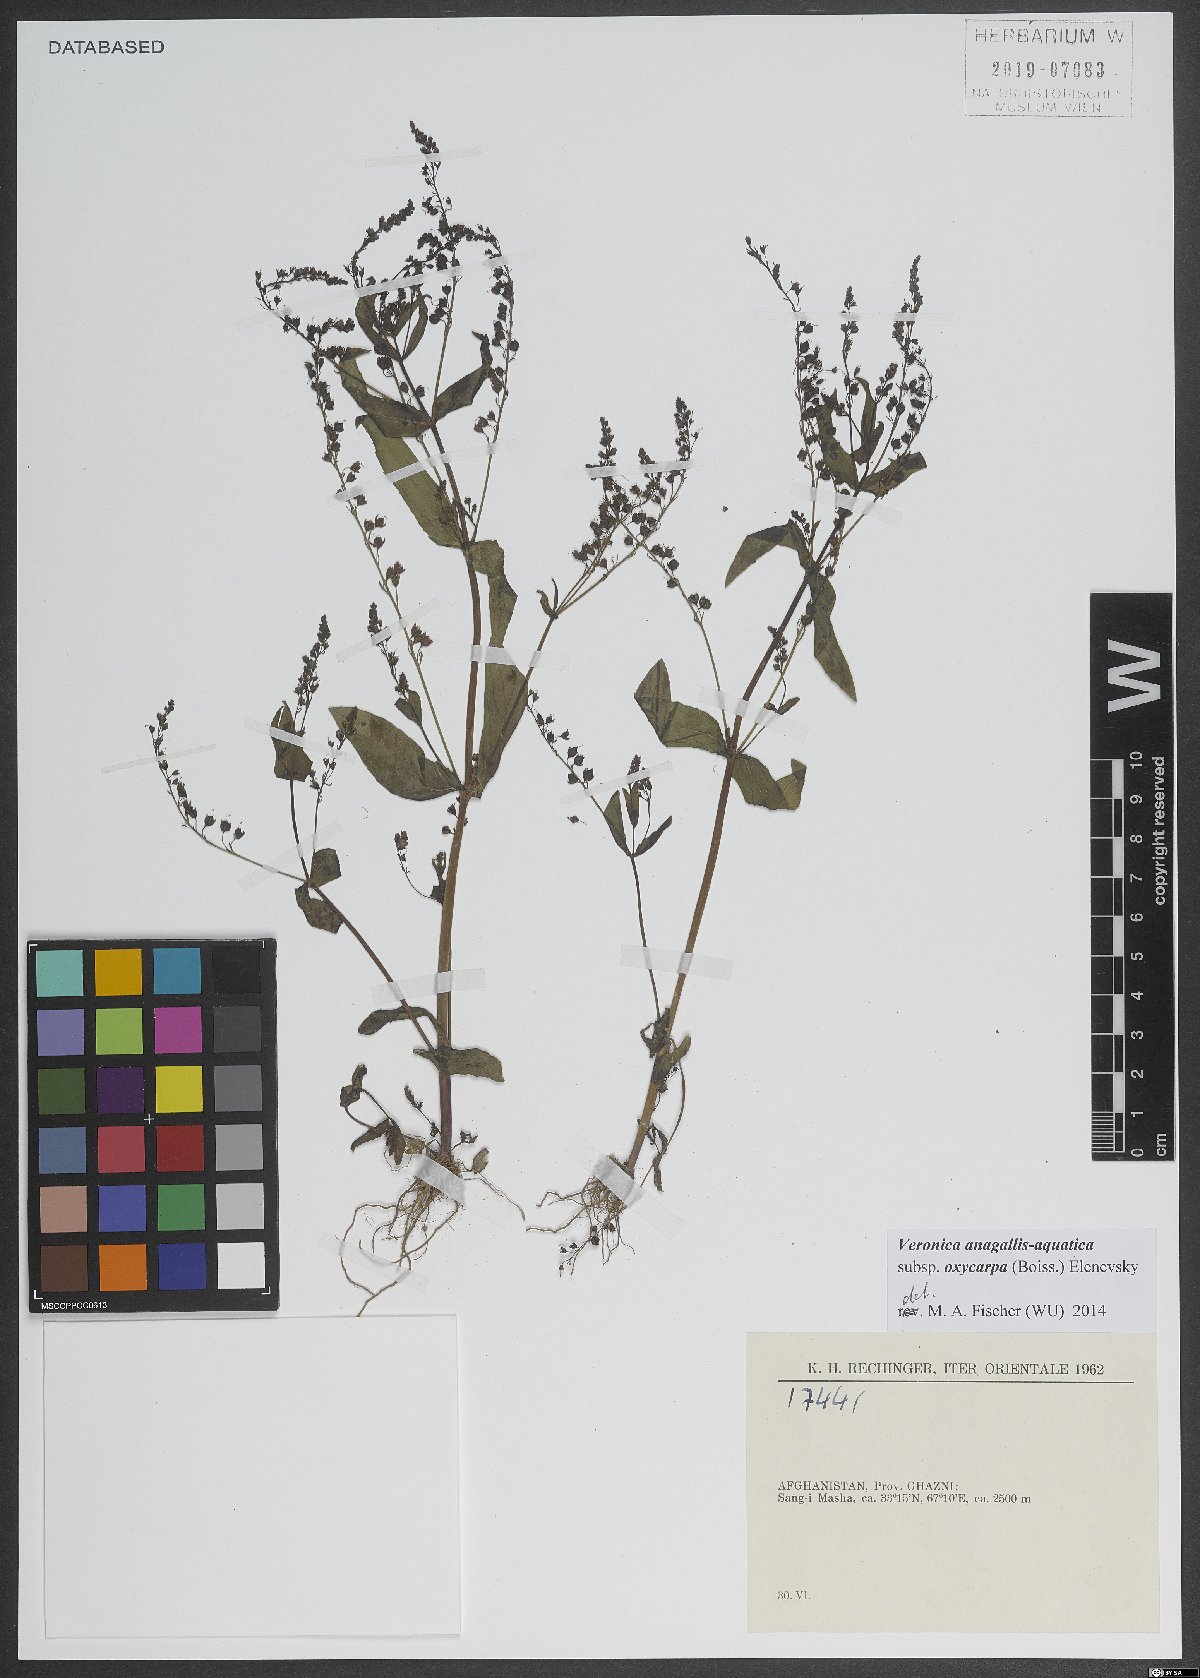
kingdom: Plantae
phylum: Tracheophyta
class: Magnoliopsida
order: Lamiales
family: Plantaginaceae
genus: Veronica
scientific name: Veronica oxycarpa
